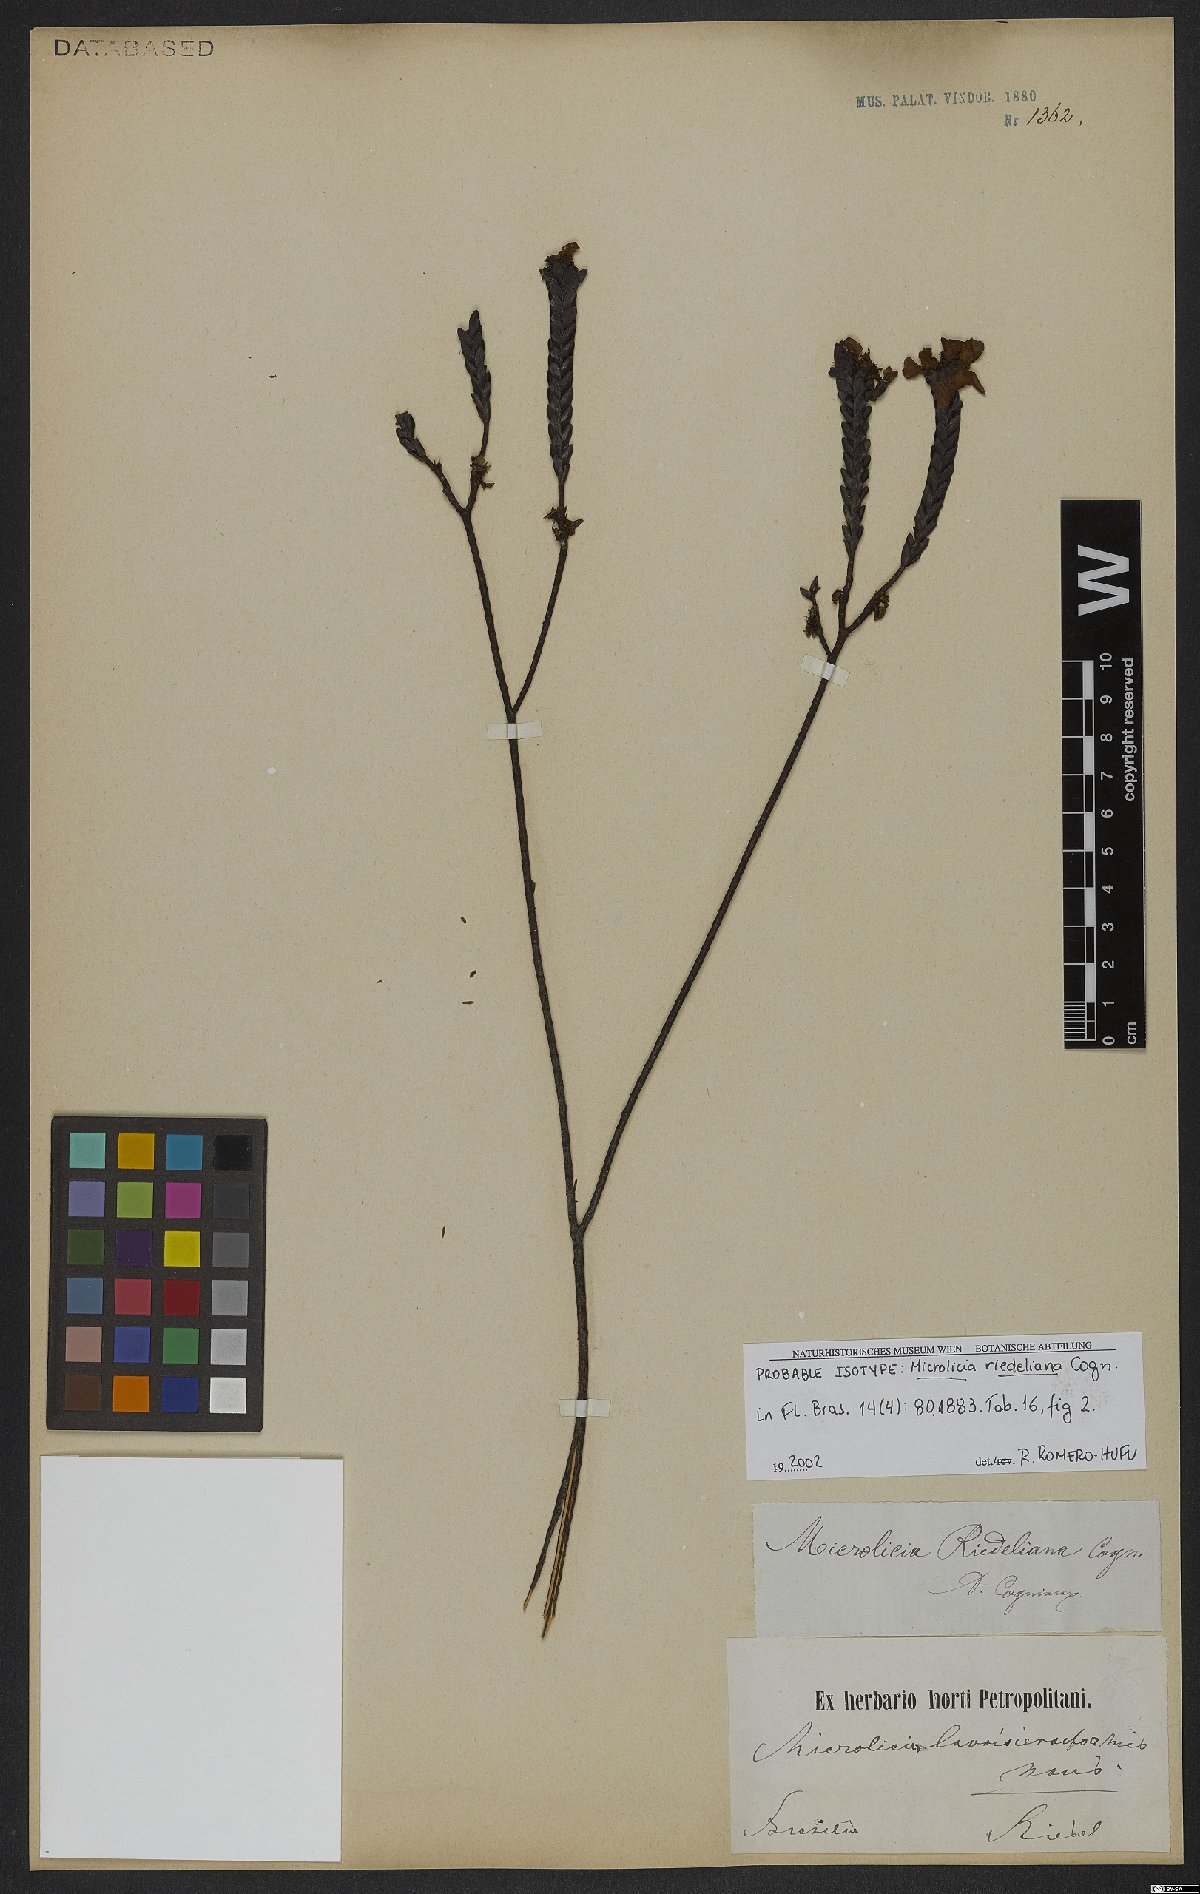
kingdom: Plantae
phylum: Tracheophyta
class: Magnoliopsida
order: Myrtales
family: Melastomataceae
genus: Microlicia
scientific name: Microlicia riedeliana
